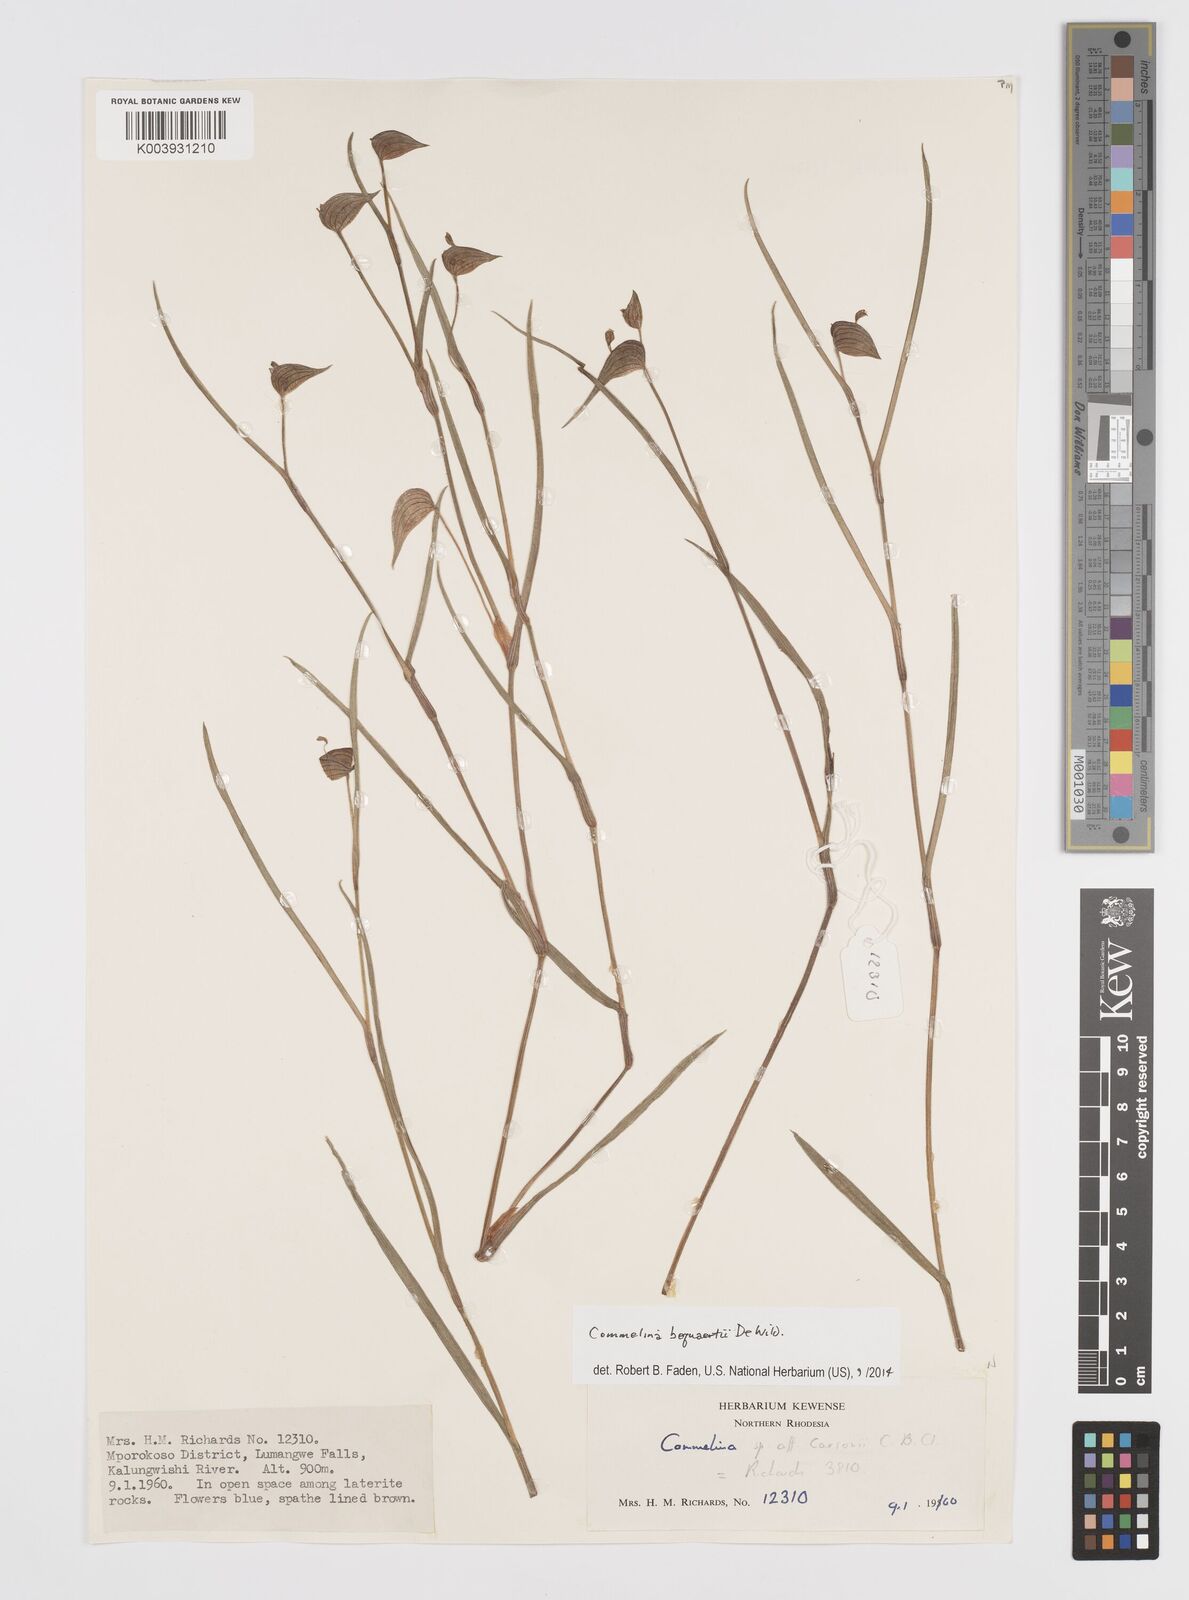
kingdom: Plantae
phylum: Tracheophyta
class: Liliopsida
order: Commelinales
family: Commelinaceae
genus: Commelina
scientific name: Commelina bequaertii
